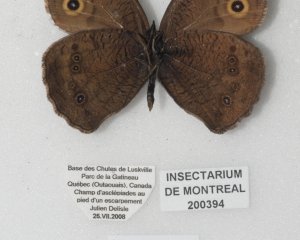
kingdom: Animalia
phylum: Arthropoda
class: Insecta
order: Lepidoptera
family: Nymphalidae
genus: Cercyonis
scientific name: Cercyonis pegala
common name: Common Wood-Nymph
